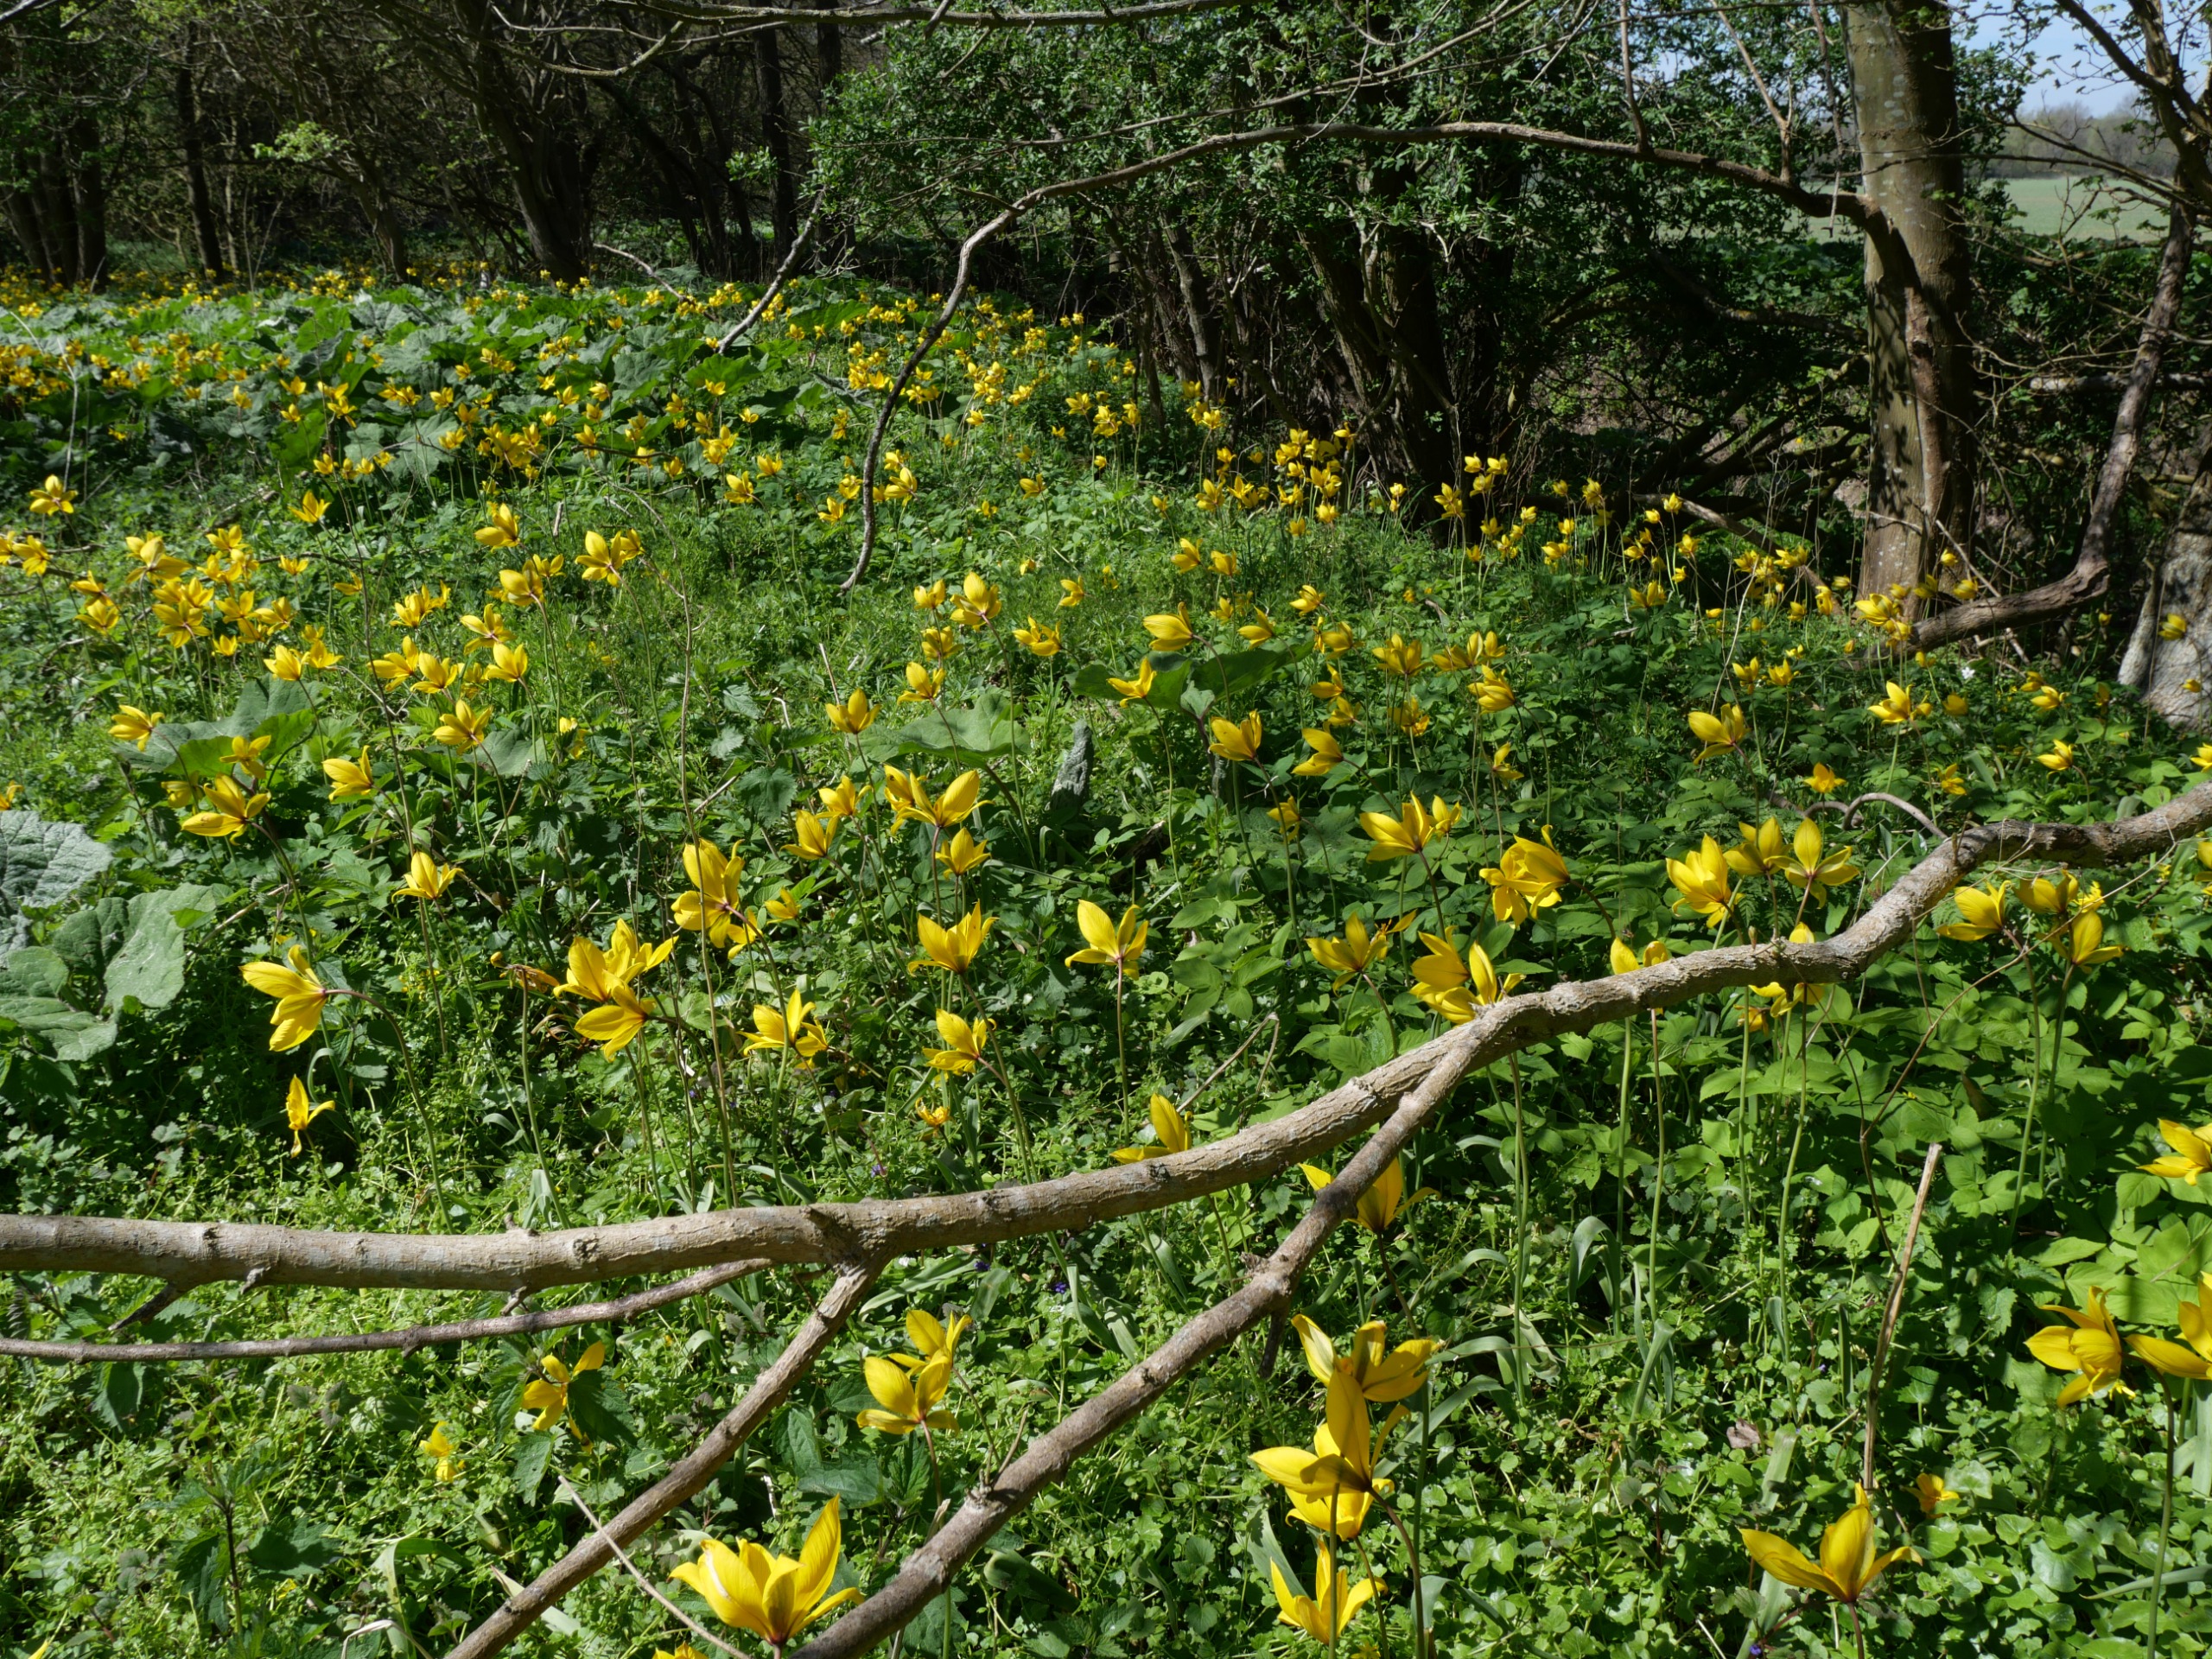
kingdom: Plantae
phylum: Tracheophyta
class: Liliopsida
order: Liliales
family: Liliaceae
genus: Tulipa
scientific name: Tulipa sylvestris
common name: Vild tulipan
